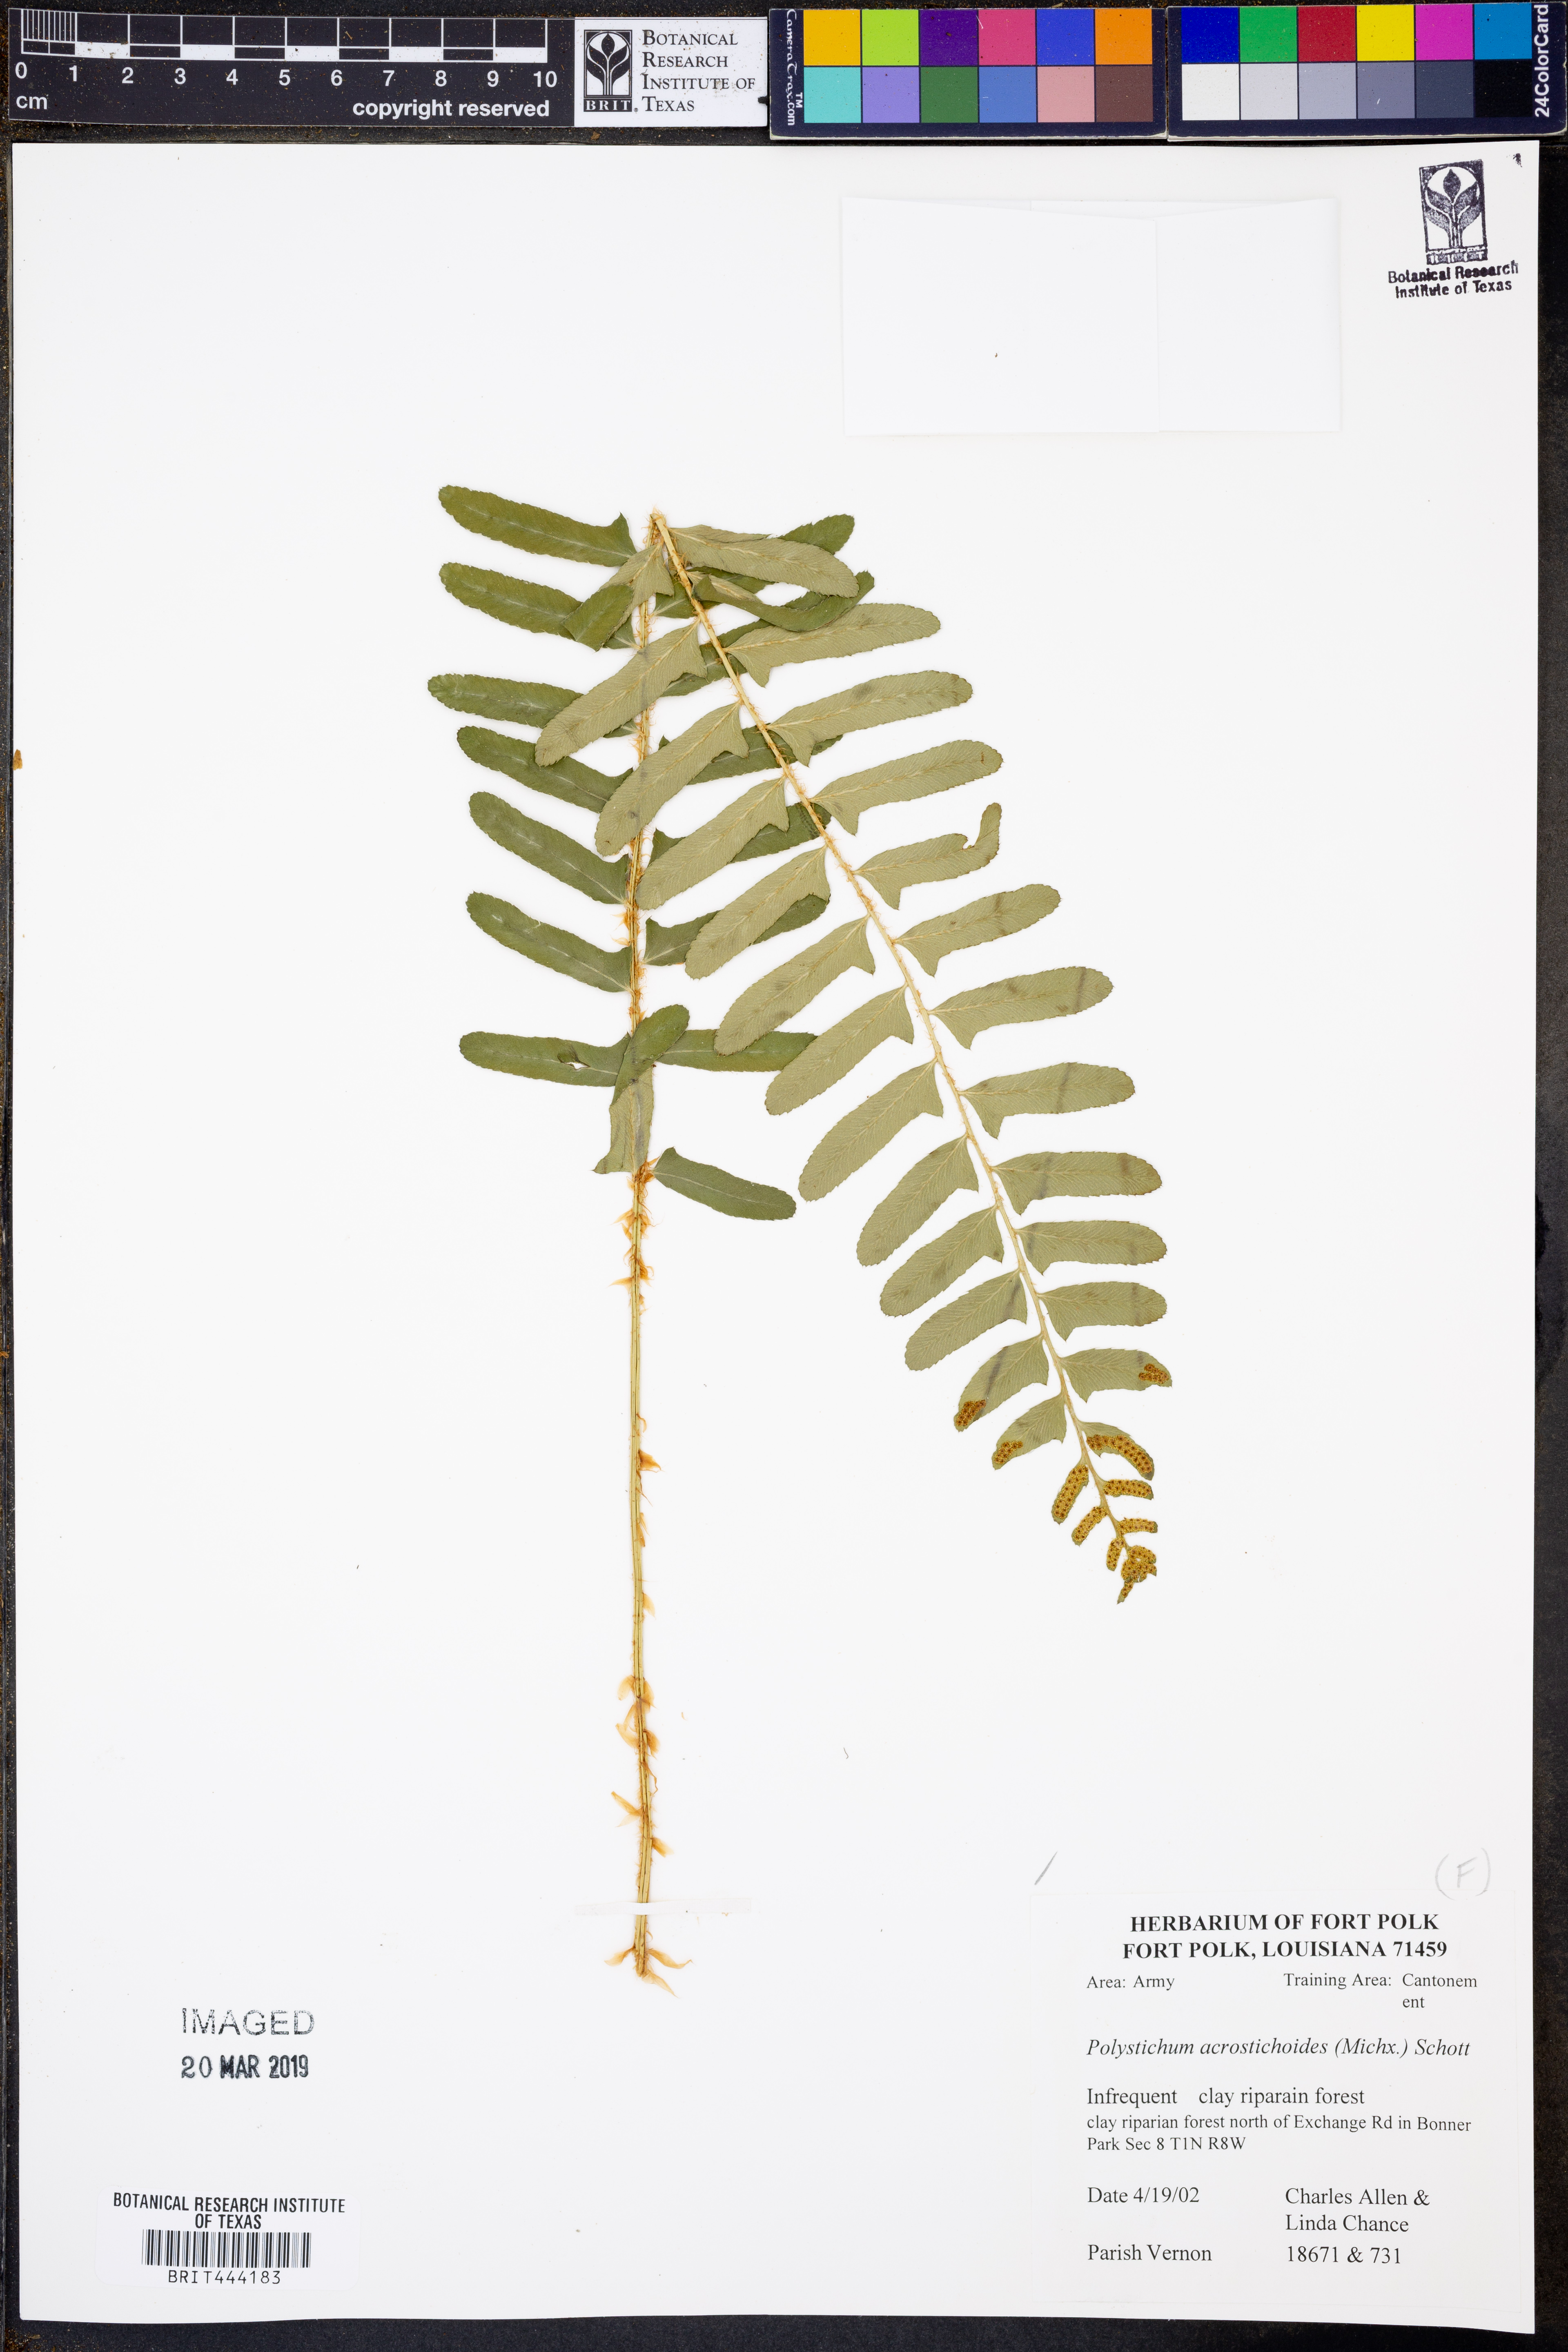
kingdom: Plantae
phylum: Tracheophyta
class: Polypodiopsida
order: Polypodiales
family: Dryopteridaceae
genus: Polystichum
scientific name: Polystichum acrostichoides
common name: Christmas fern
